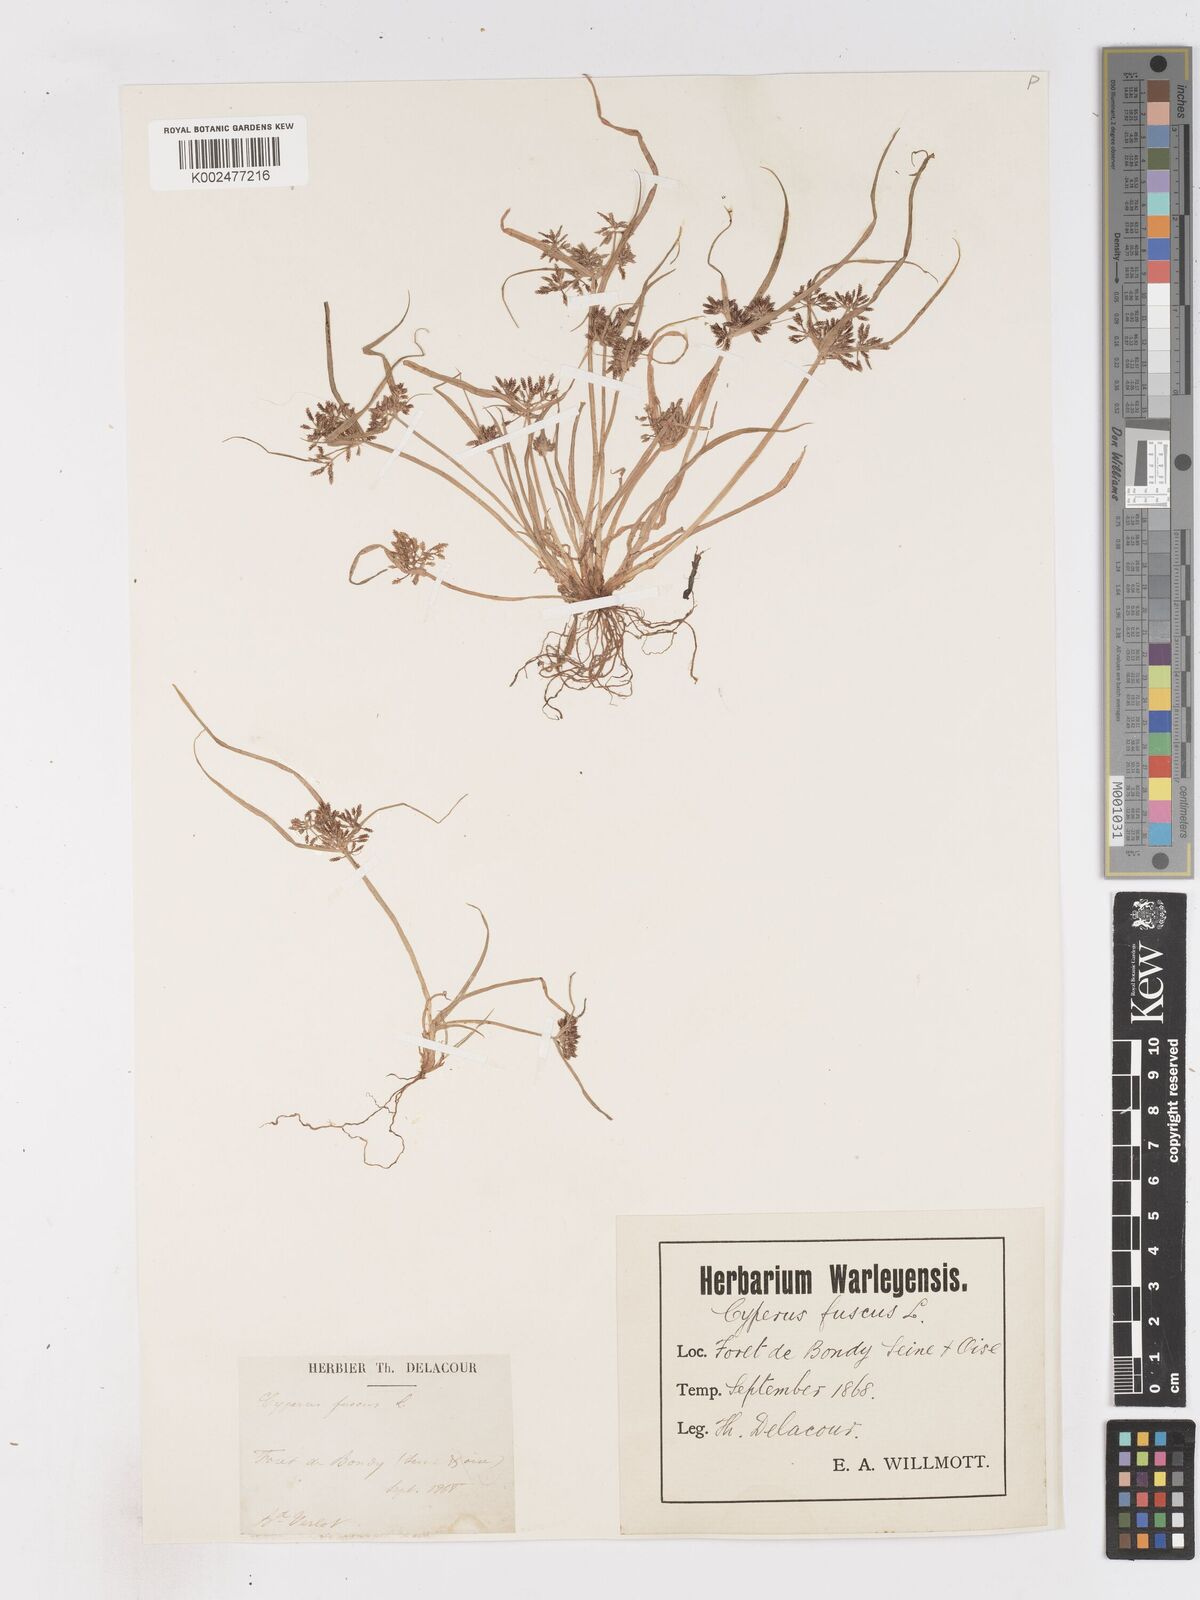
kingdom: Plantae
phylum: Tracheophyta
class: Liliopsida
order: Poales
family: Cyperaceae
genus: Cyperus
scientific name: Cyperus fuscus
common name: Brown galingale
